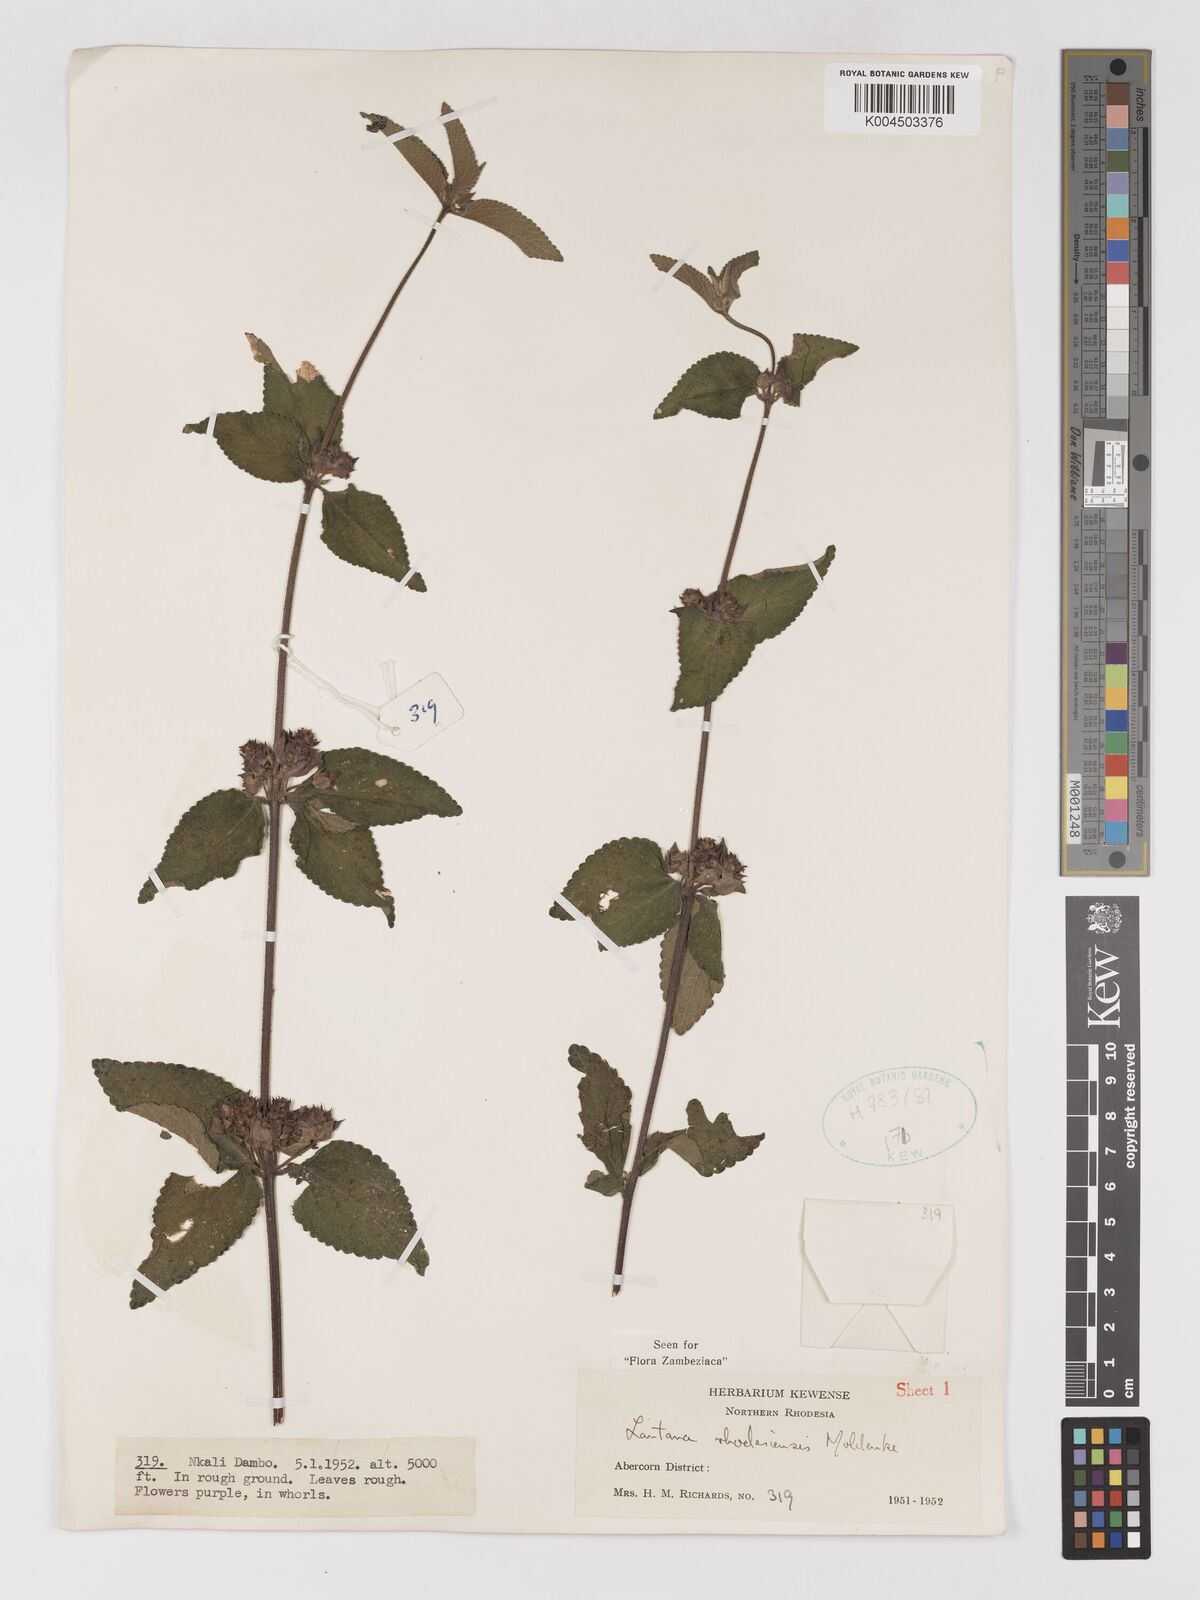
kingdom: Plantae
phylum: Tracheophyta
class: Magnoliopsida
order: Lamiales
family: Verbenaceae
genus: Lantana
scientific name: Lantana ukambensis
